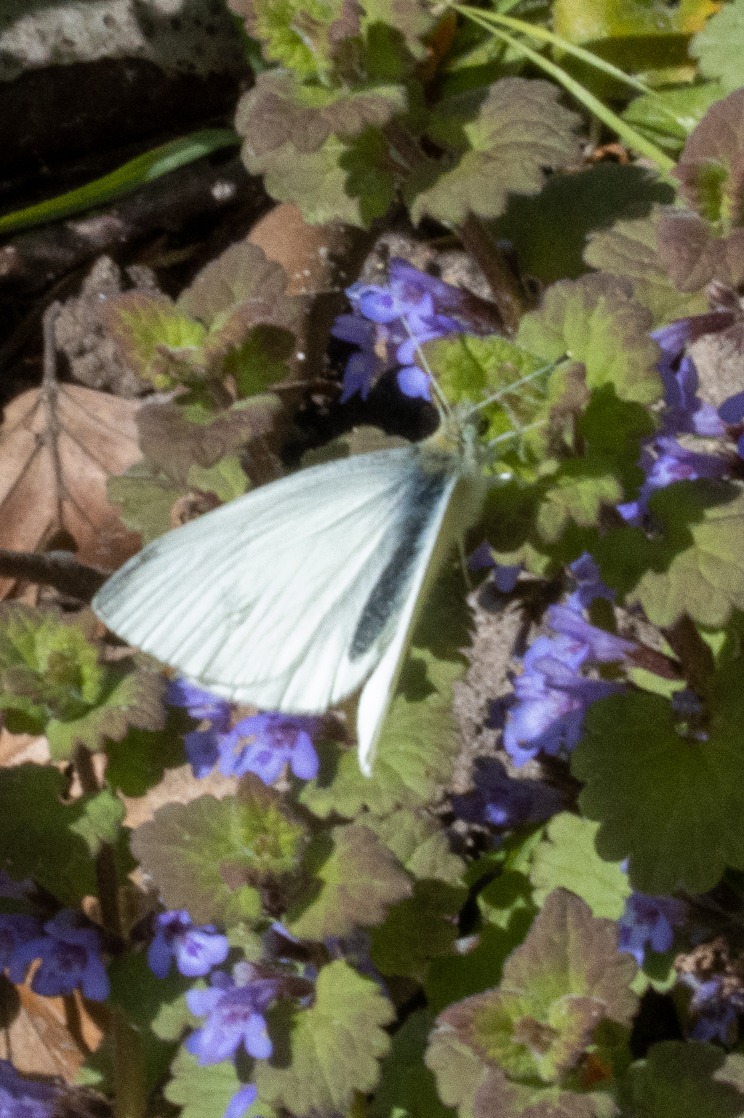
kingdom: Animalia
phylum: Arthropoda
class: Insecta
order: Lepidoptera
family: Pieridae
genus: Pieris
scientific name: Pieris rapae
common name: Lille kålsommerfugl
